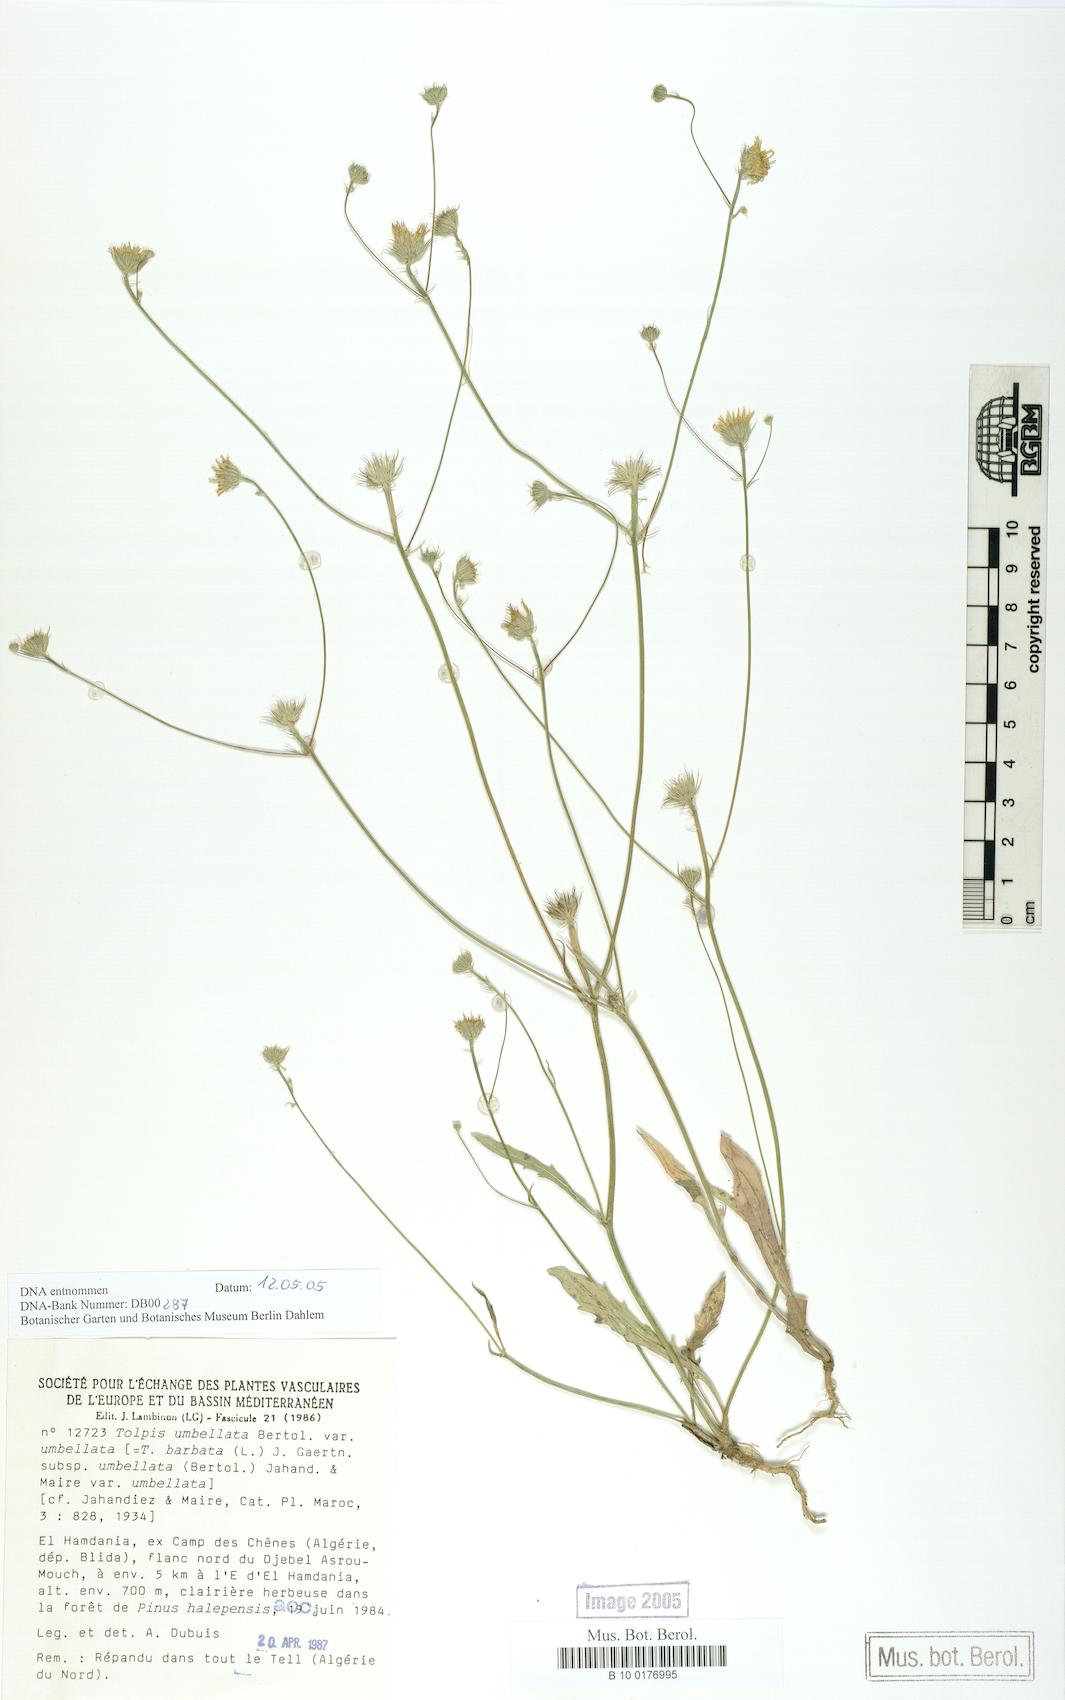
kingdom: Plantae
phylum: Tracheophyta
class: Magnoliopsida
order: Asterales
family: Asteraceae
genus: Tolpis
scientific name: Tolpis umbellata
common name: Yellow hawkweed
